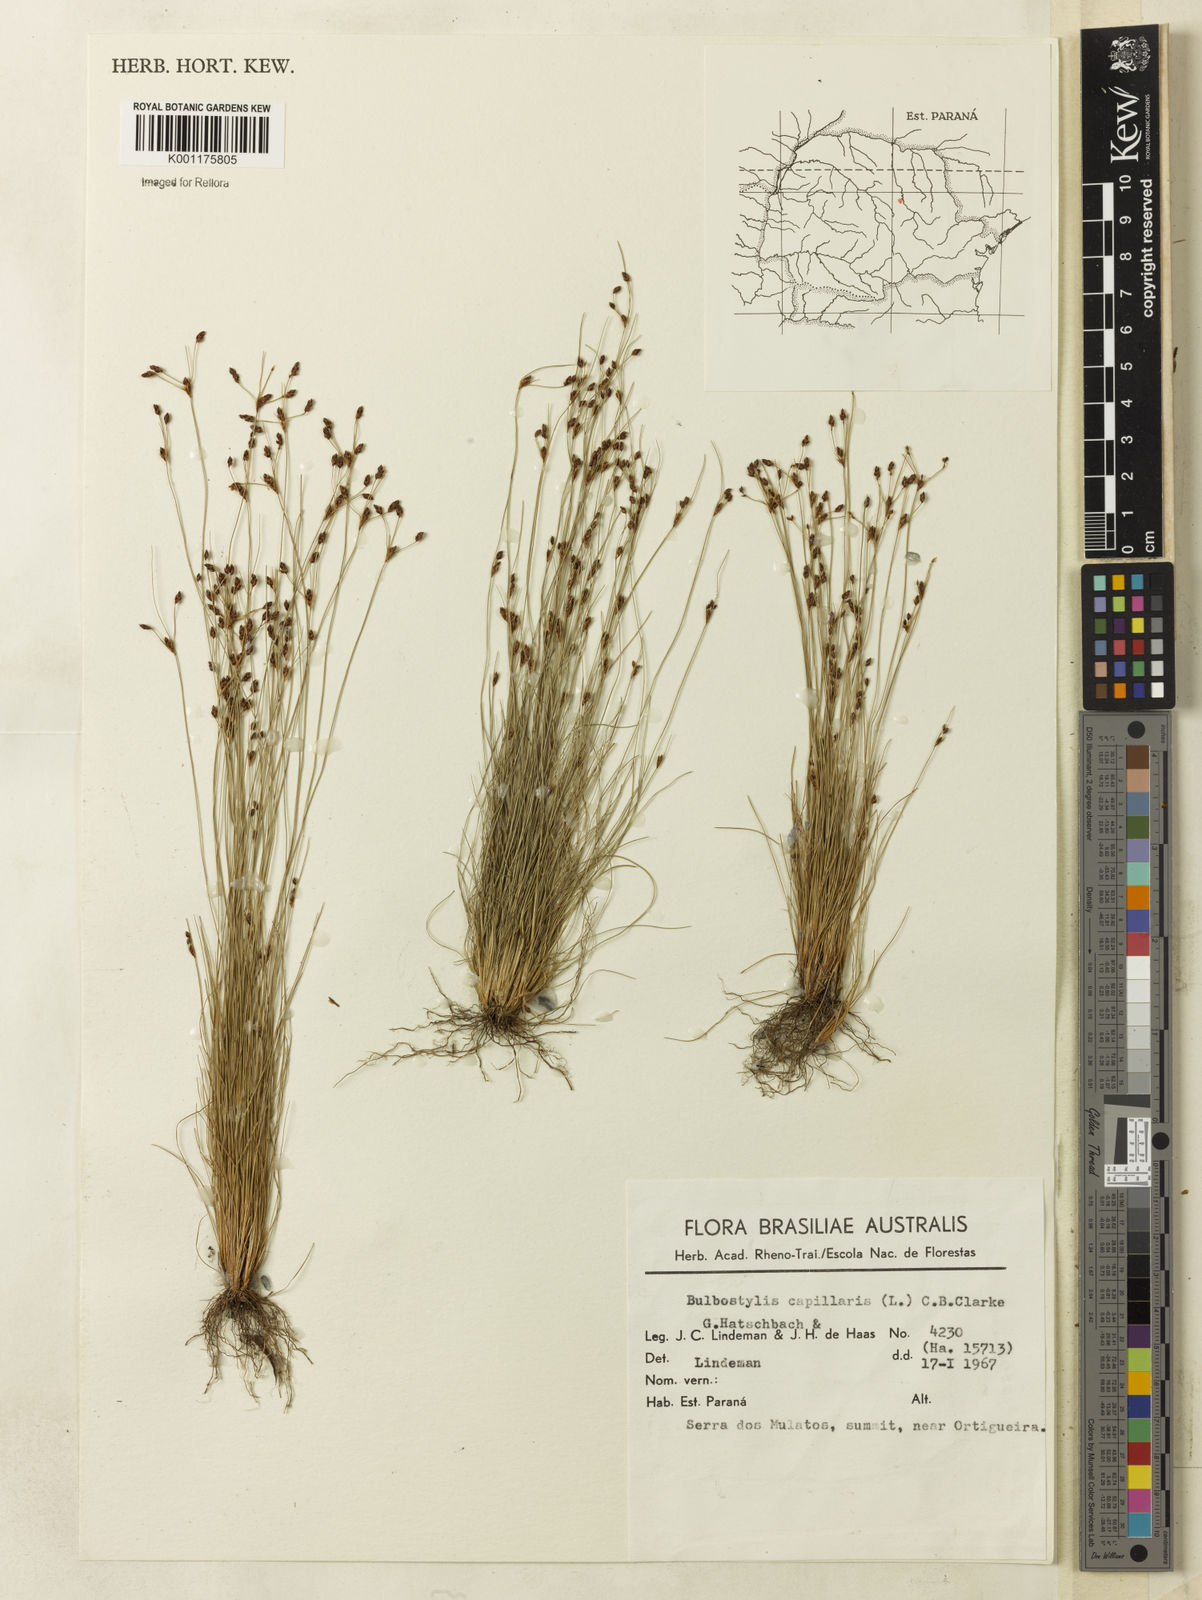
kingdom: Plantae
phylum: Tracheophyta
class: Liliopsida
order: Poales
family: Cyperaceae
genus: Bulbostylis
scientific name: Bulbostylis capillaris
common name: Densetuft hairsedge
